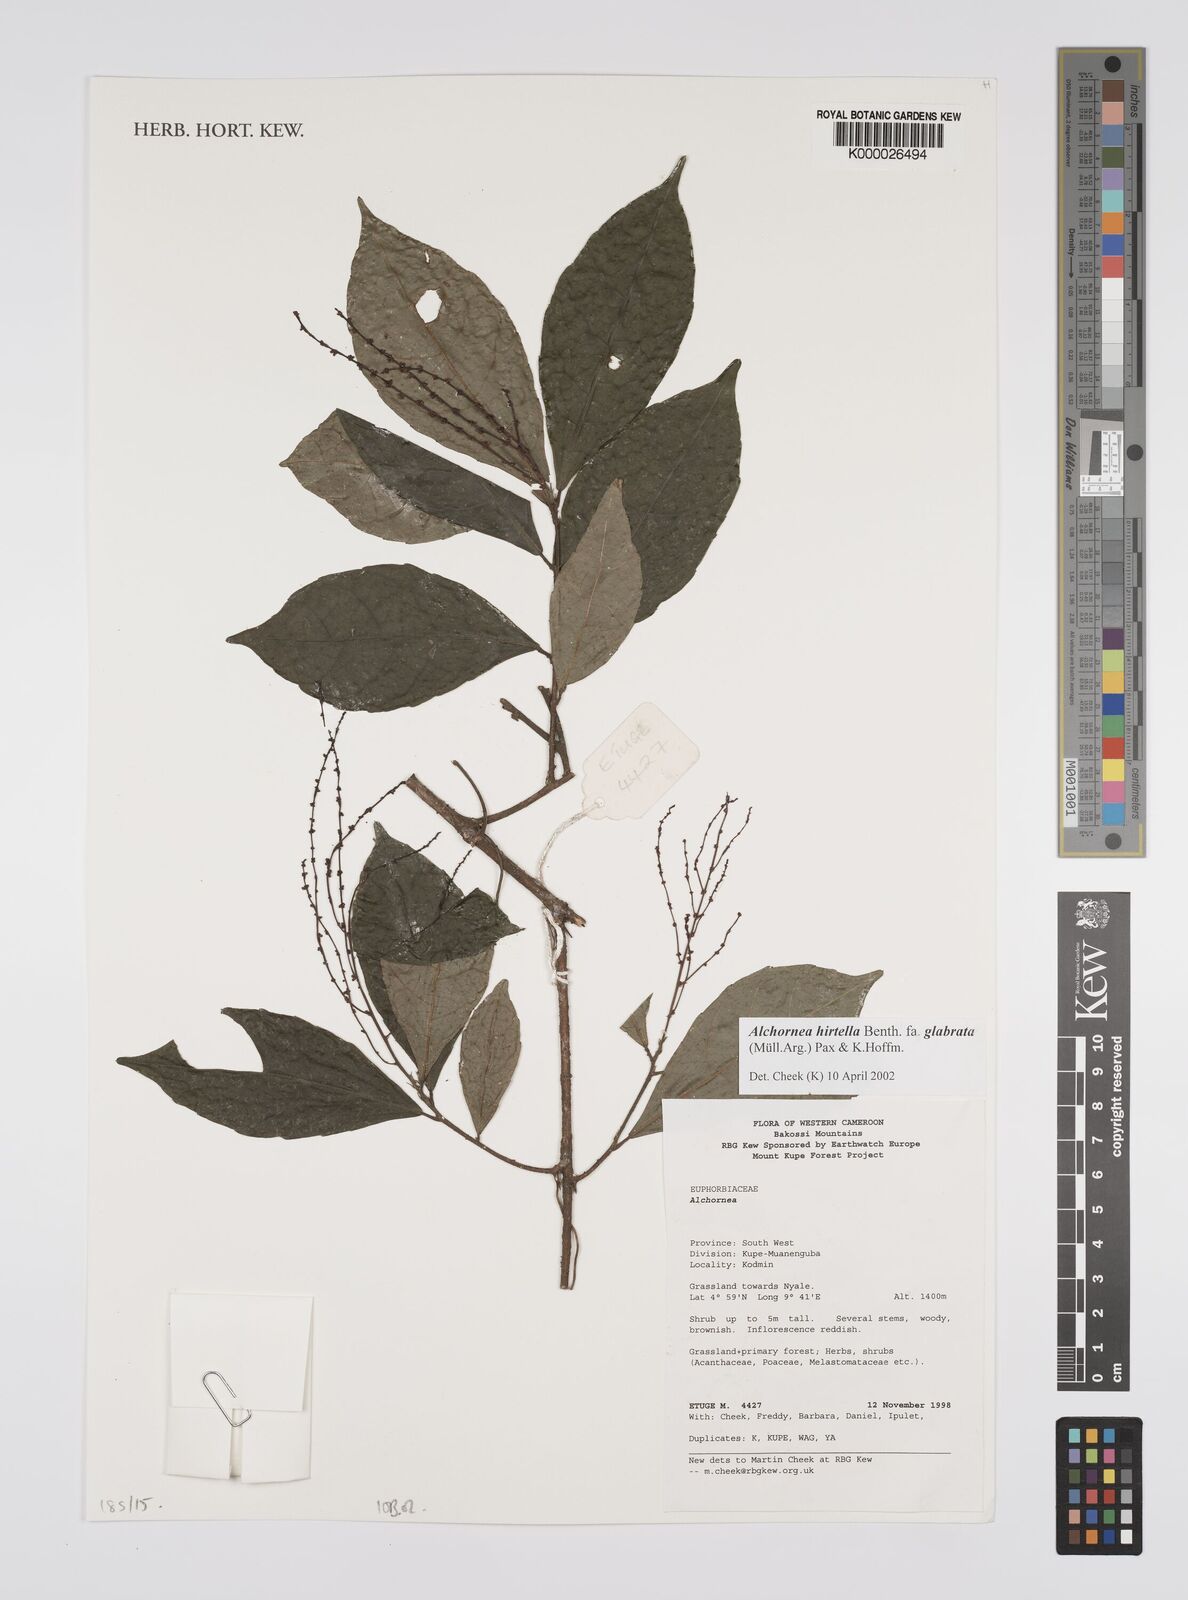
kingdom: Plantae
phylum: Tracheophyta
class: Magnoliopsida
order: Malpighiales
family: Euphorbiaceae
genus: Alchornea
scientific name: Alchornea hirtella
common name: Forest bead-string
